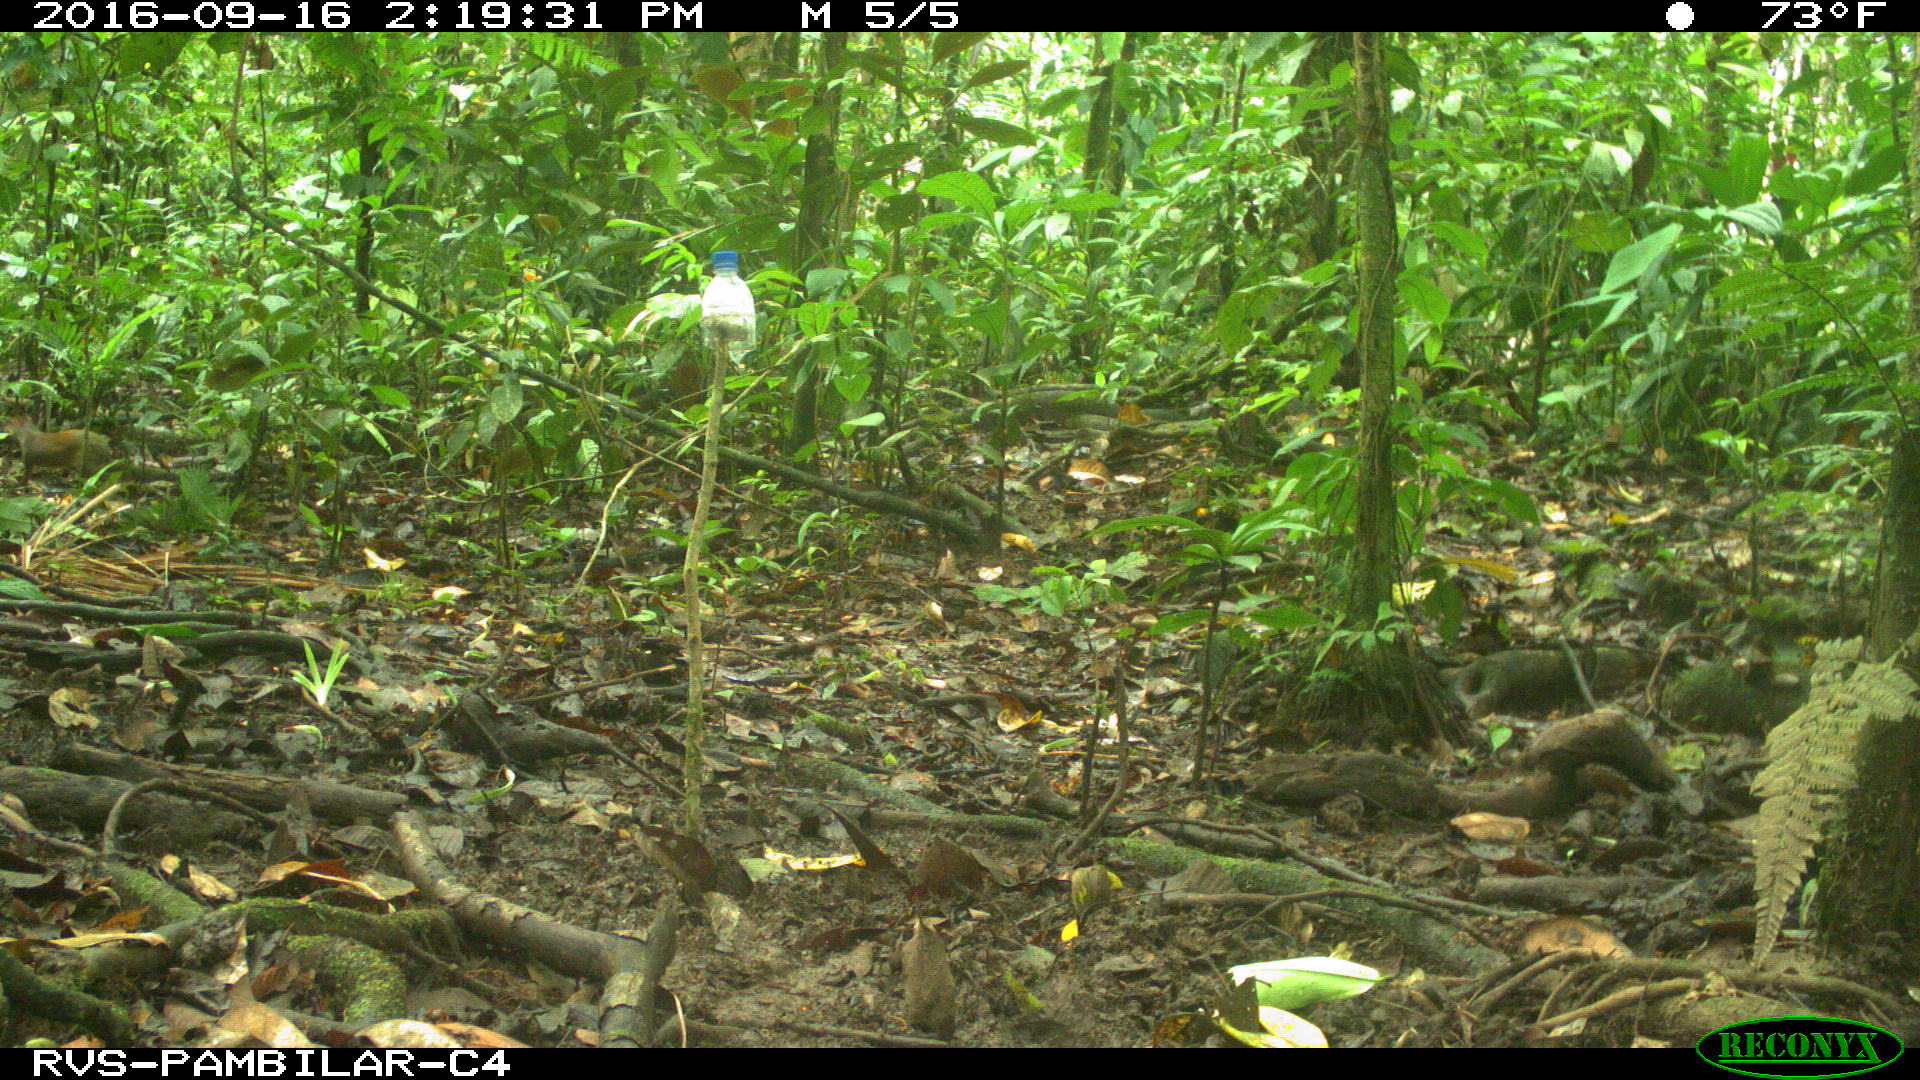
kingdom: Animalia
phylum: Chordata
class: Mammalia
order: Rodentia
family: Dasyproctidae
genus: Dasyprocta
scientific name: Dasyprocta punctata
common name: Central american agouti
